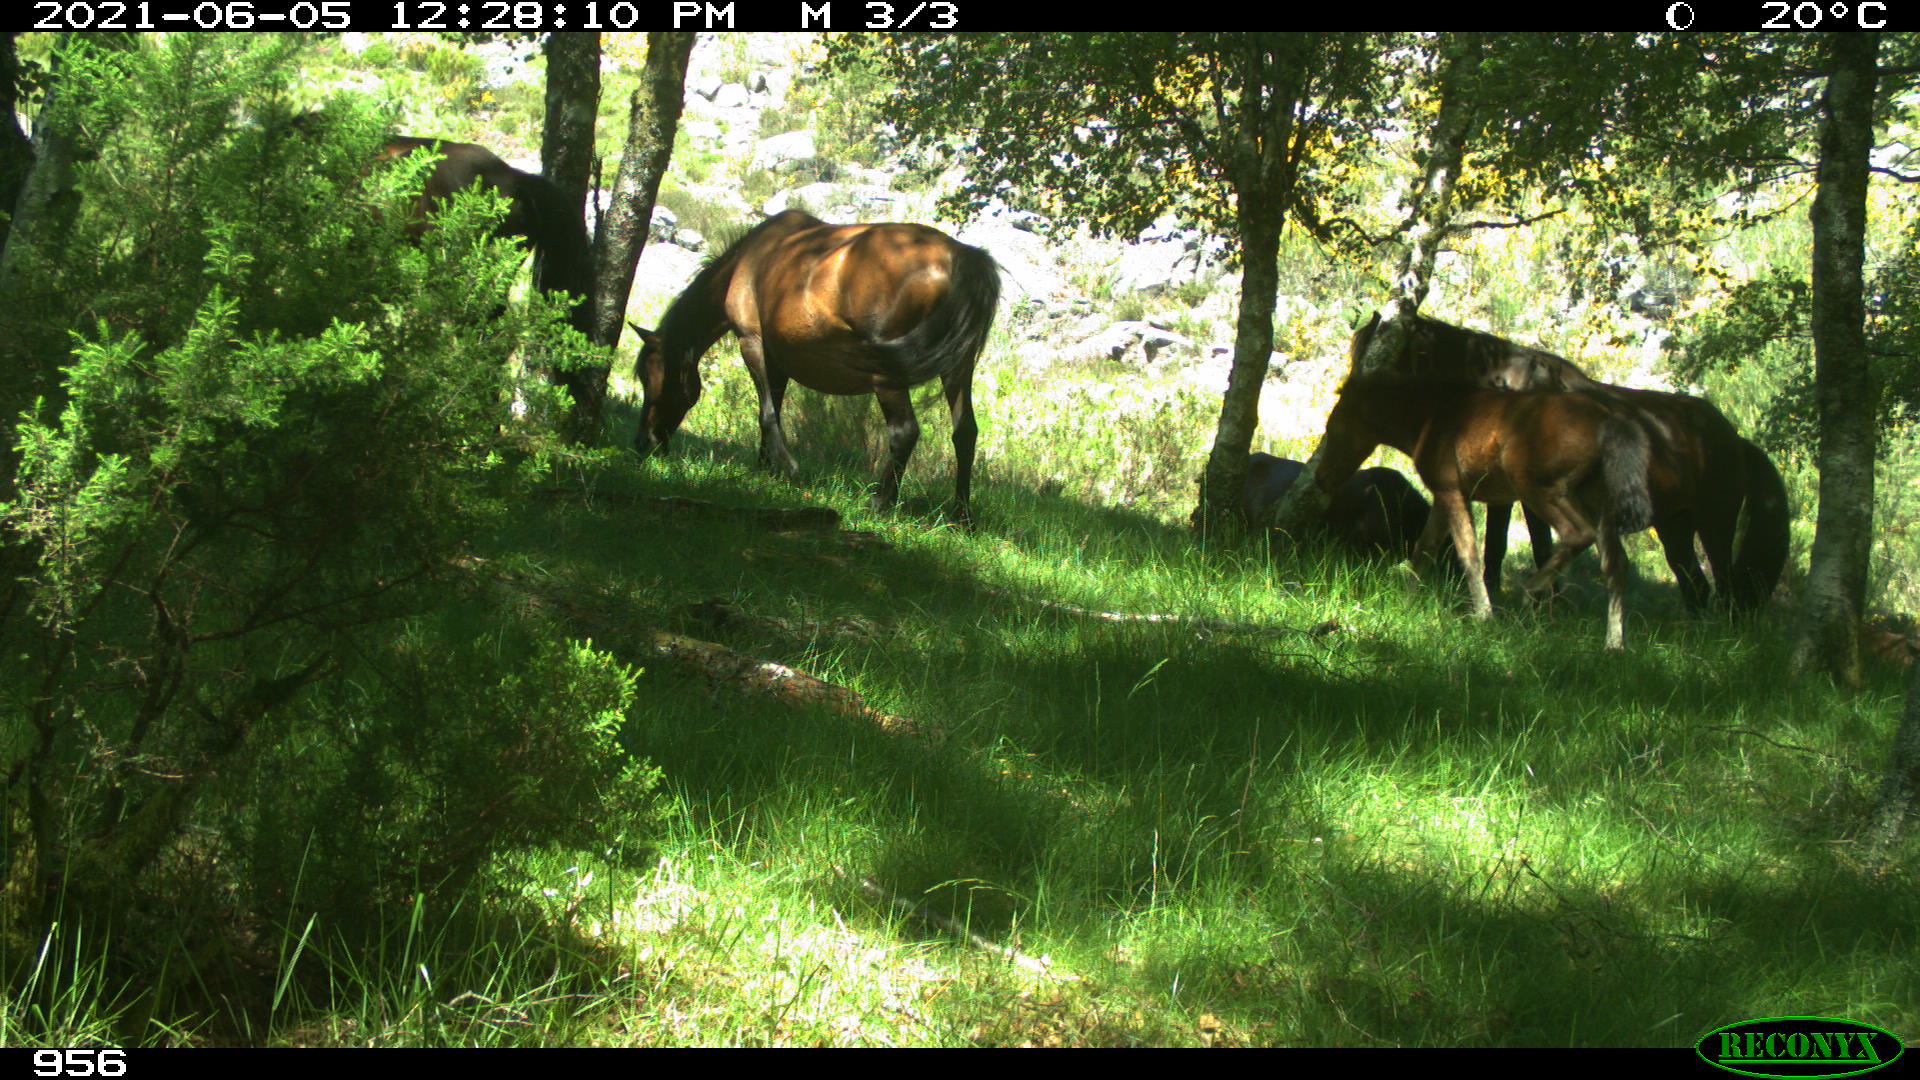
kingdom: Animalia
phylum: Chordata
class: Mammalia
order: Perissodactyla
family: Equidae
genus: Equus
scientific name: Equus caballus
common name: Horse
